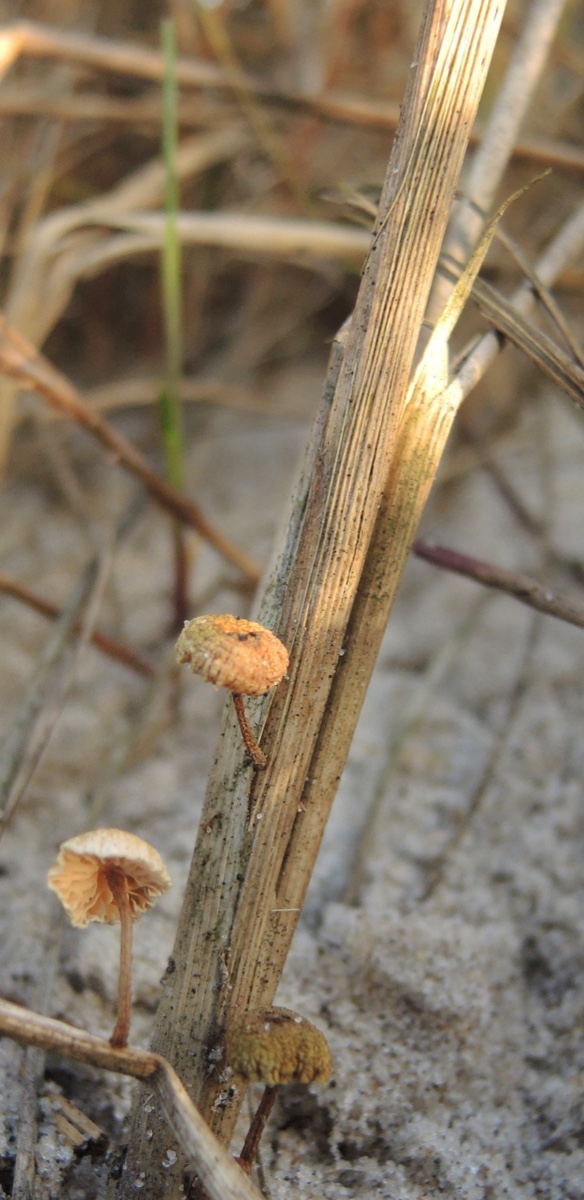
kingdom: Fungi
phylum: Basidiomycota
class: Agaricomycetes
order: Agaricales
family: Marasmiaceae
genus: Crinipellis
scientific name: Crinipellis scabella
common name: børstefod
